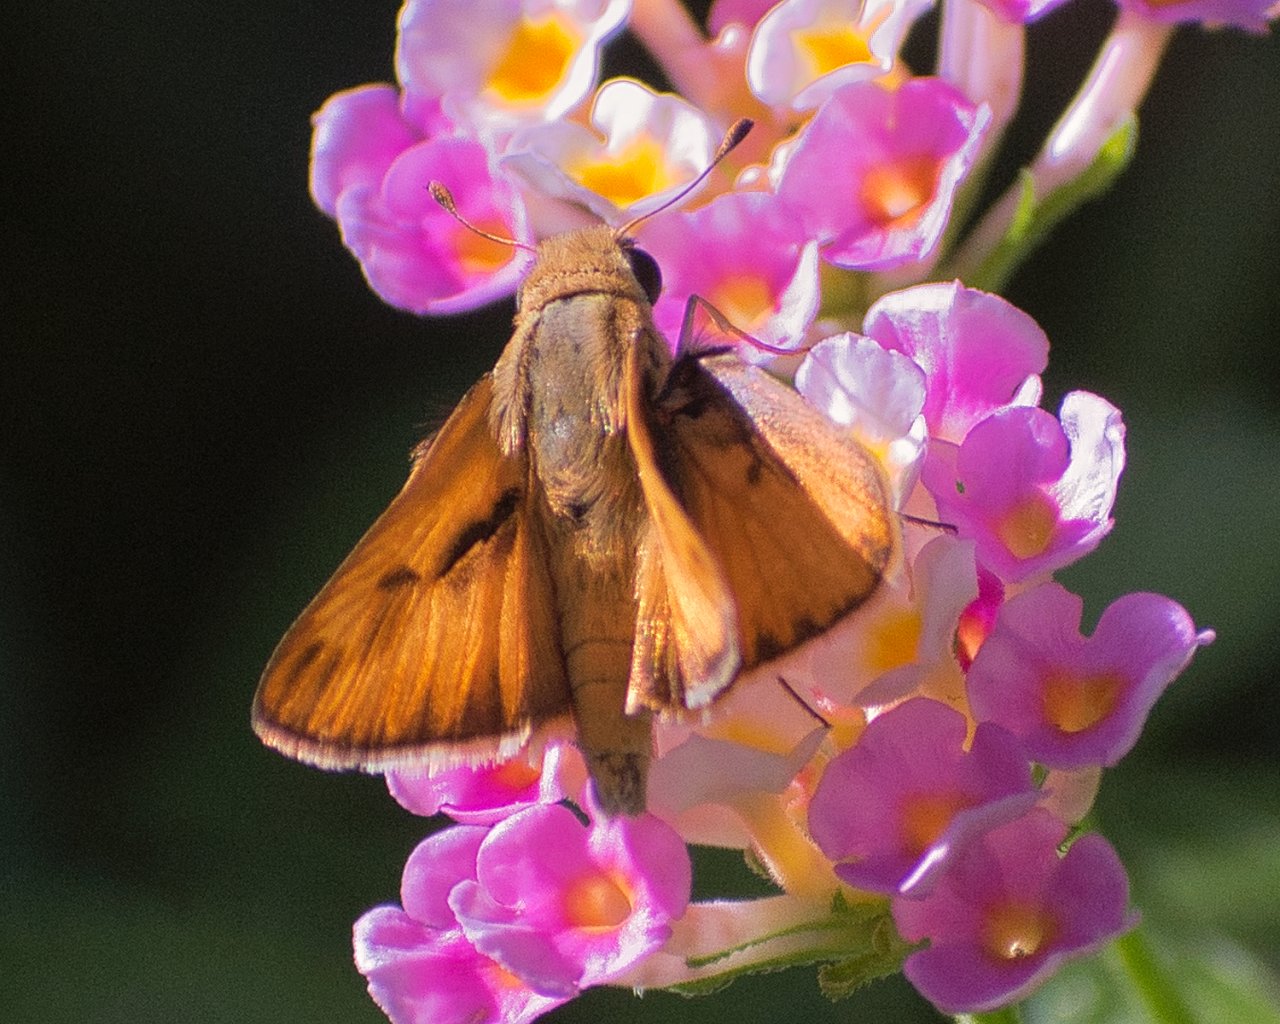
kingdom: Animalia
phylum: Arthropoda
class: Insecta
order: Lepidoptera
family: Hesperiidae
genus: Hylephila
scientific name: Hylephila phyleus
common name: Fiery Skipper
